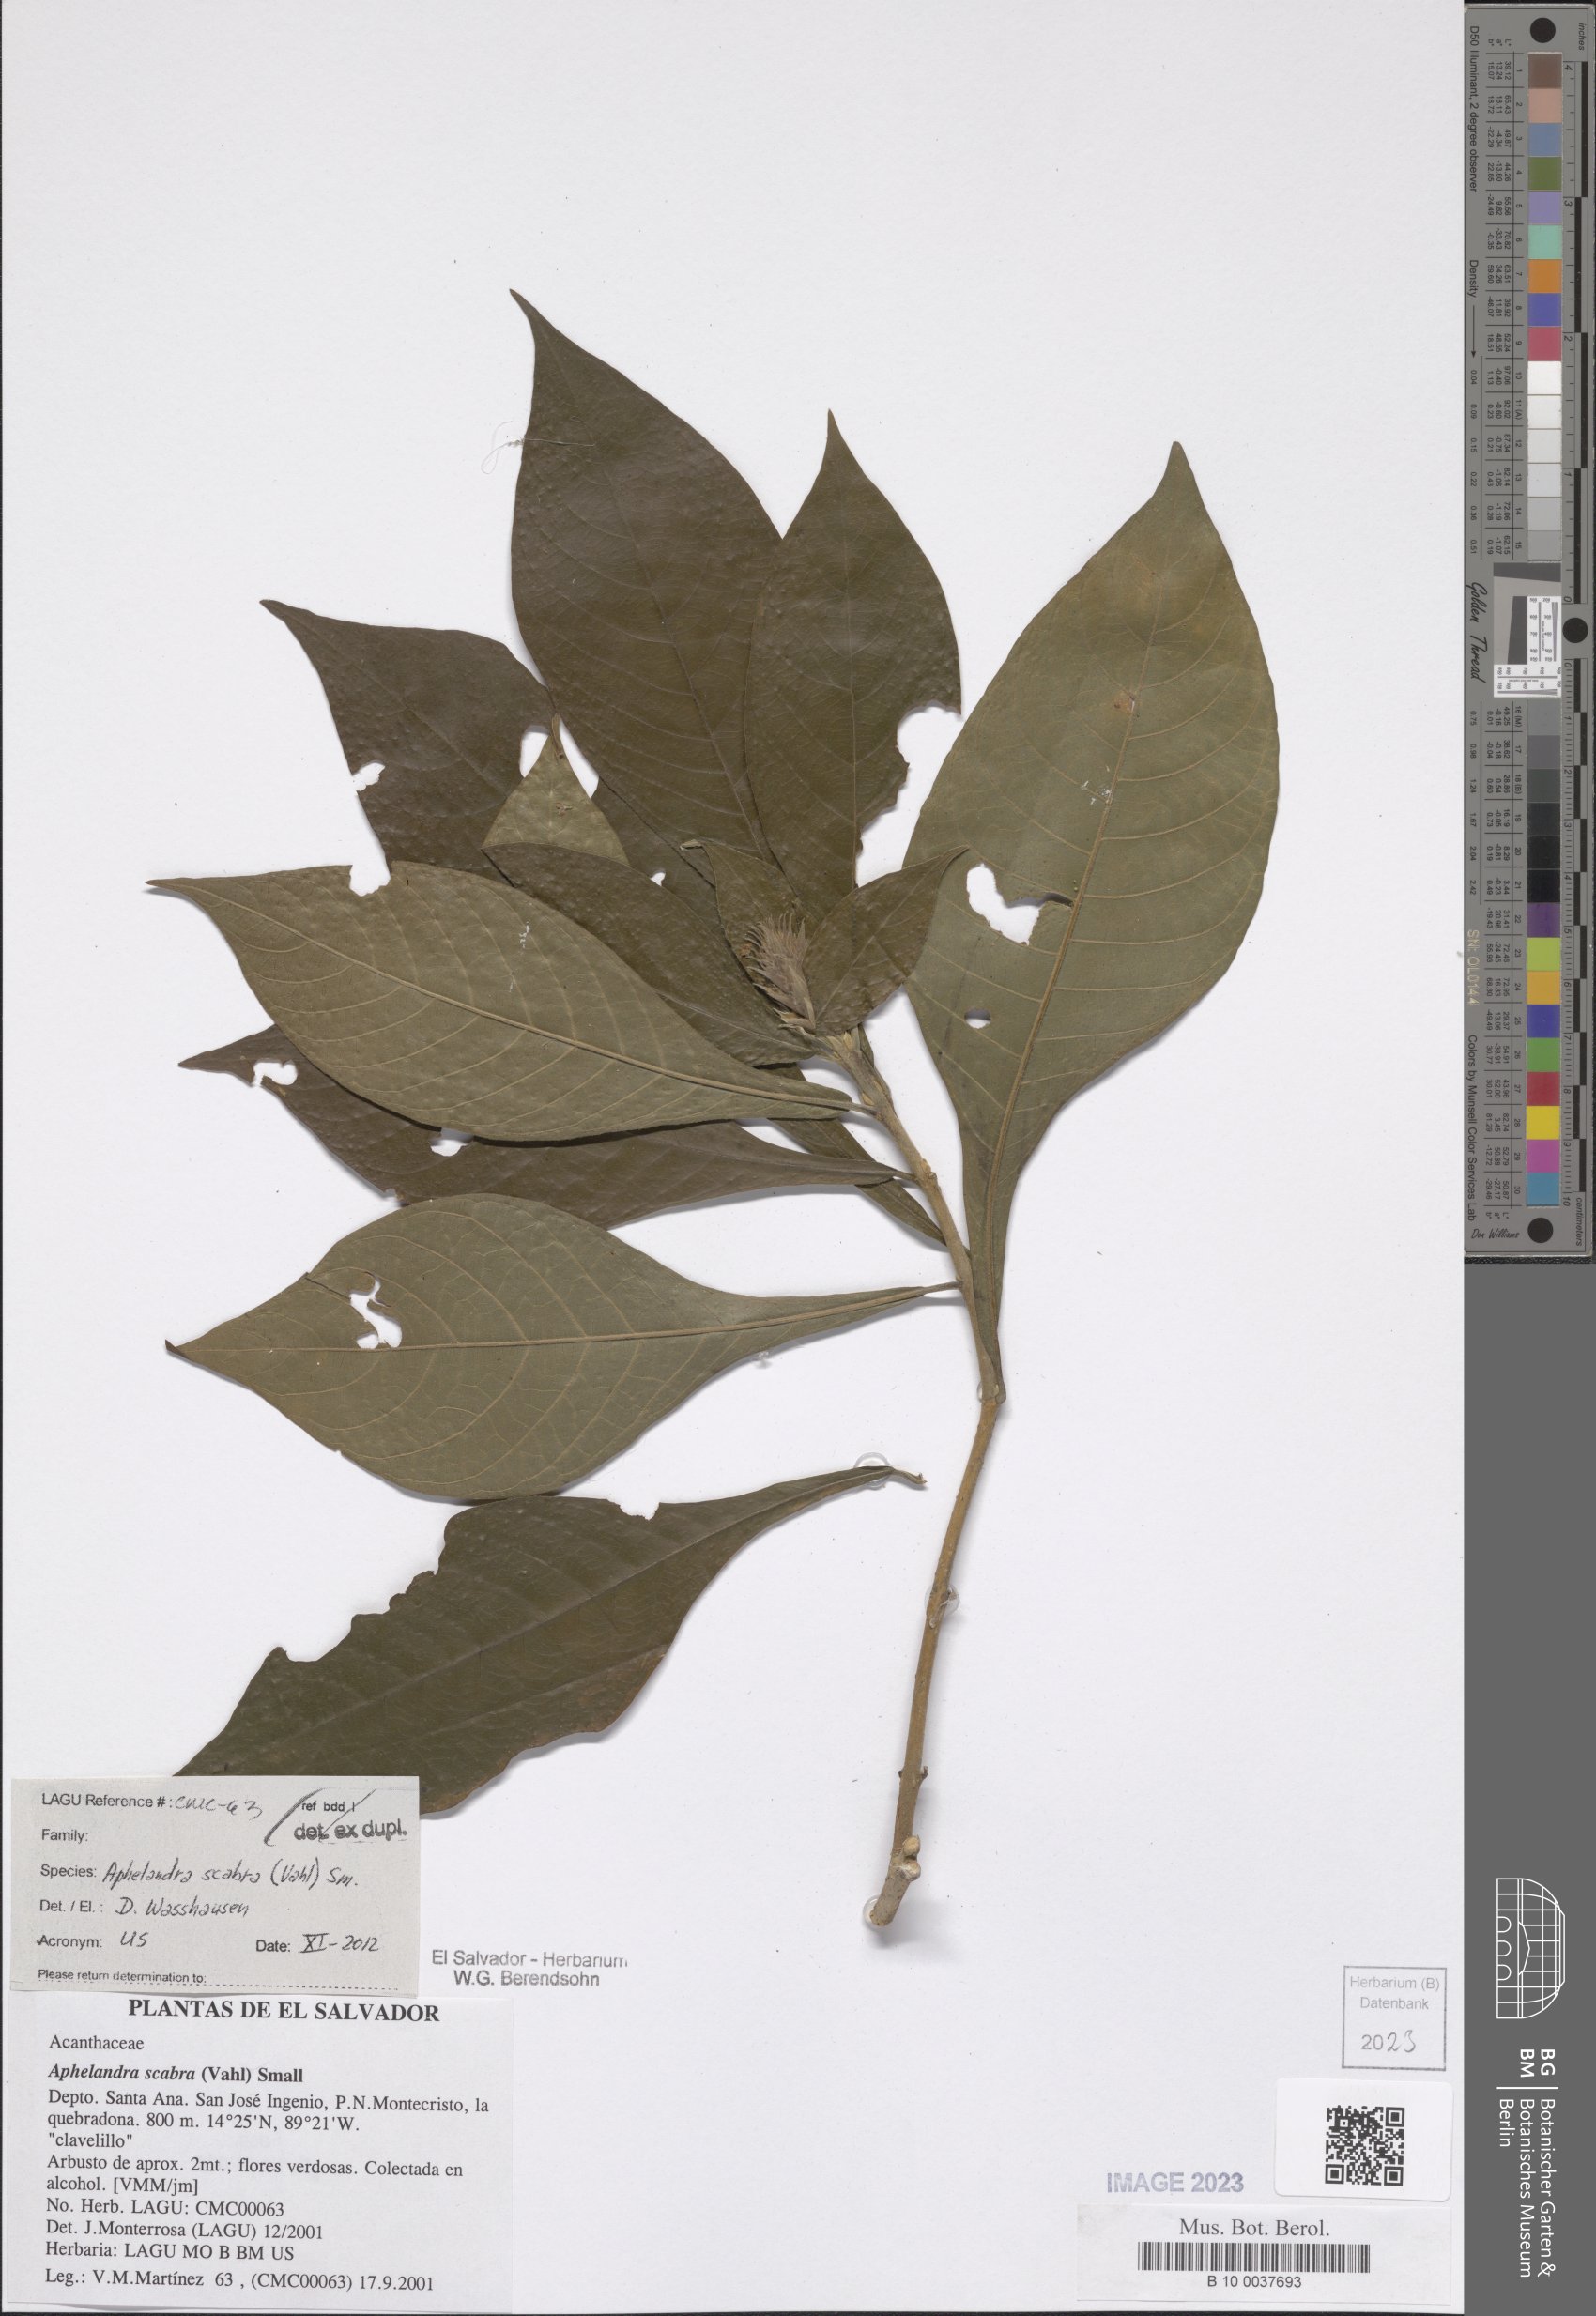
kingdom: Plantae
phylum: Tracheophyta
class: Magnoliopsida
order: Lamiales
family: Acanthaceae
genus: Aphelandra
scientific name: Aphelandra scabra
